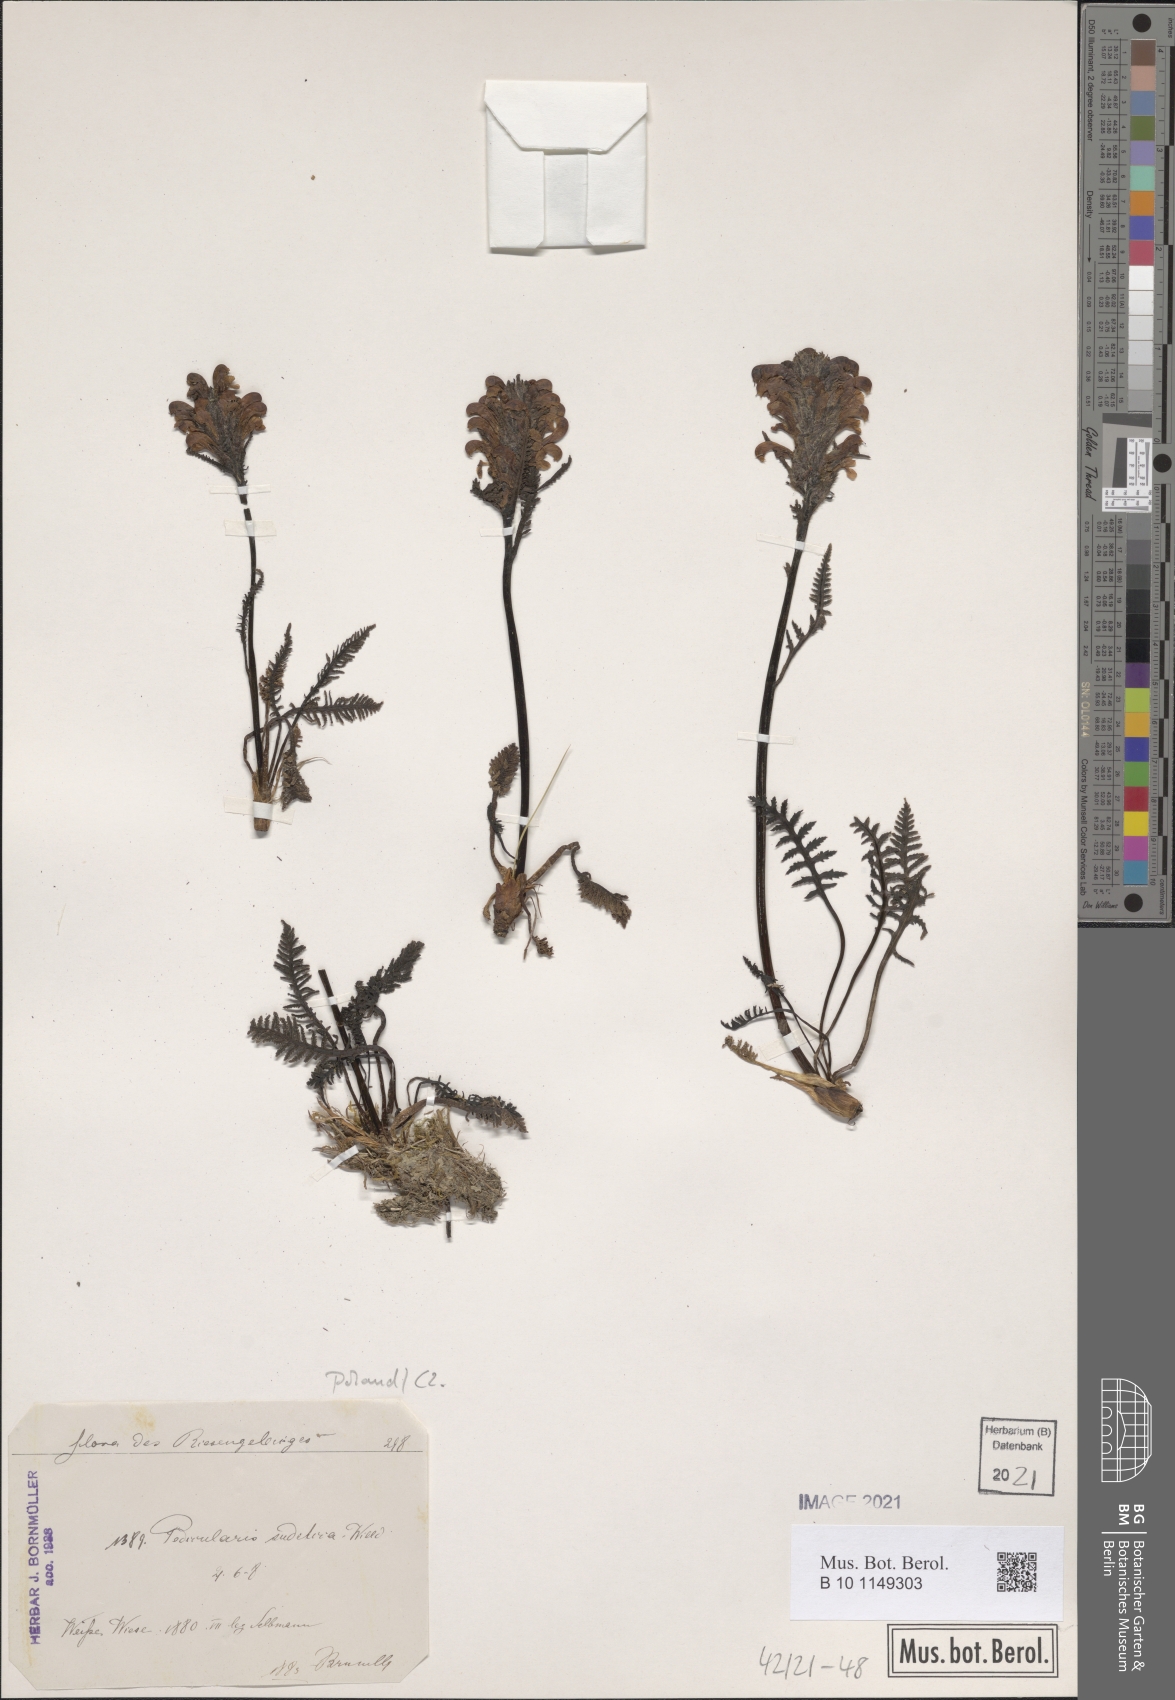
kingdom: Plantae
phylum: Tracheophyta
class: Magnoliopsida
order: Lamiales
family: Orobanchaceae
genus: Pedicularis
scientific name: Pedicularis sudetica
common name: Sudeten lousewort
